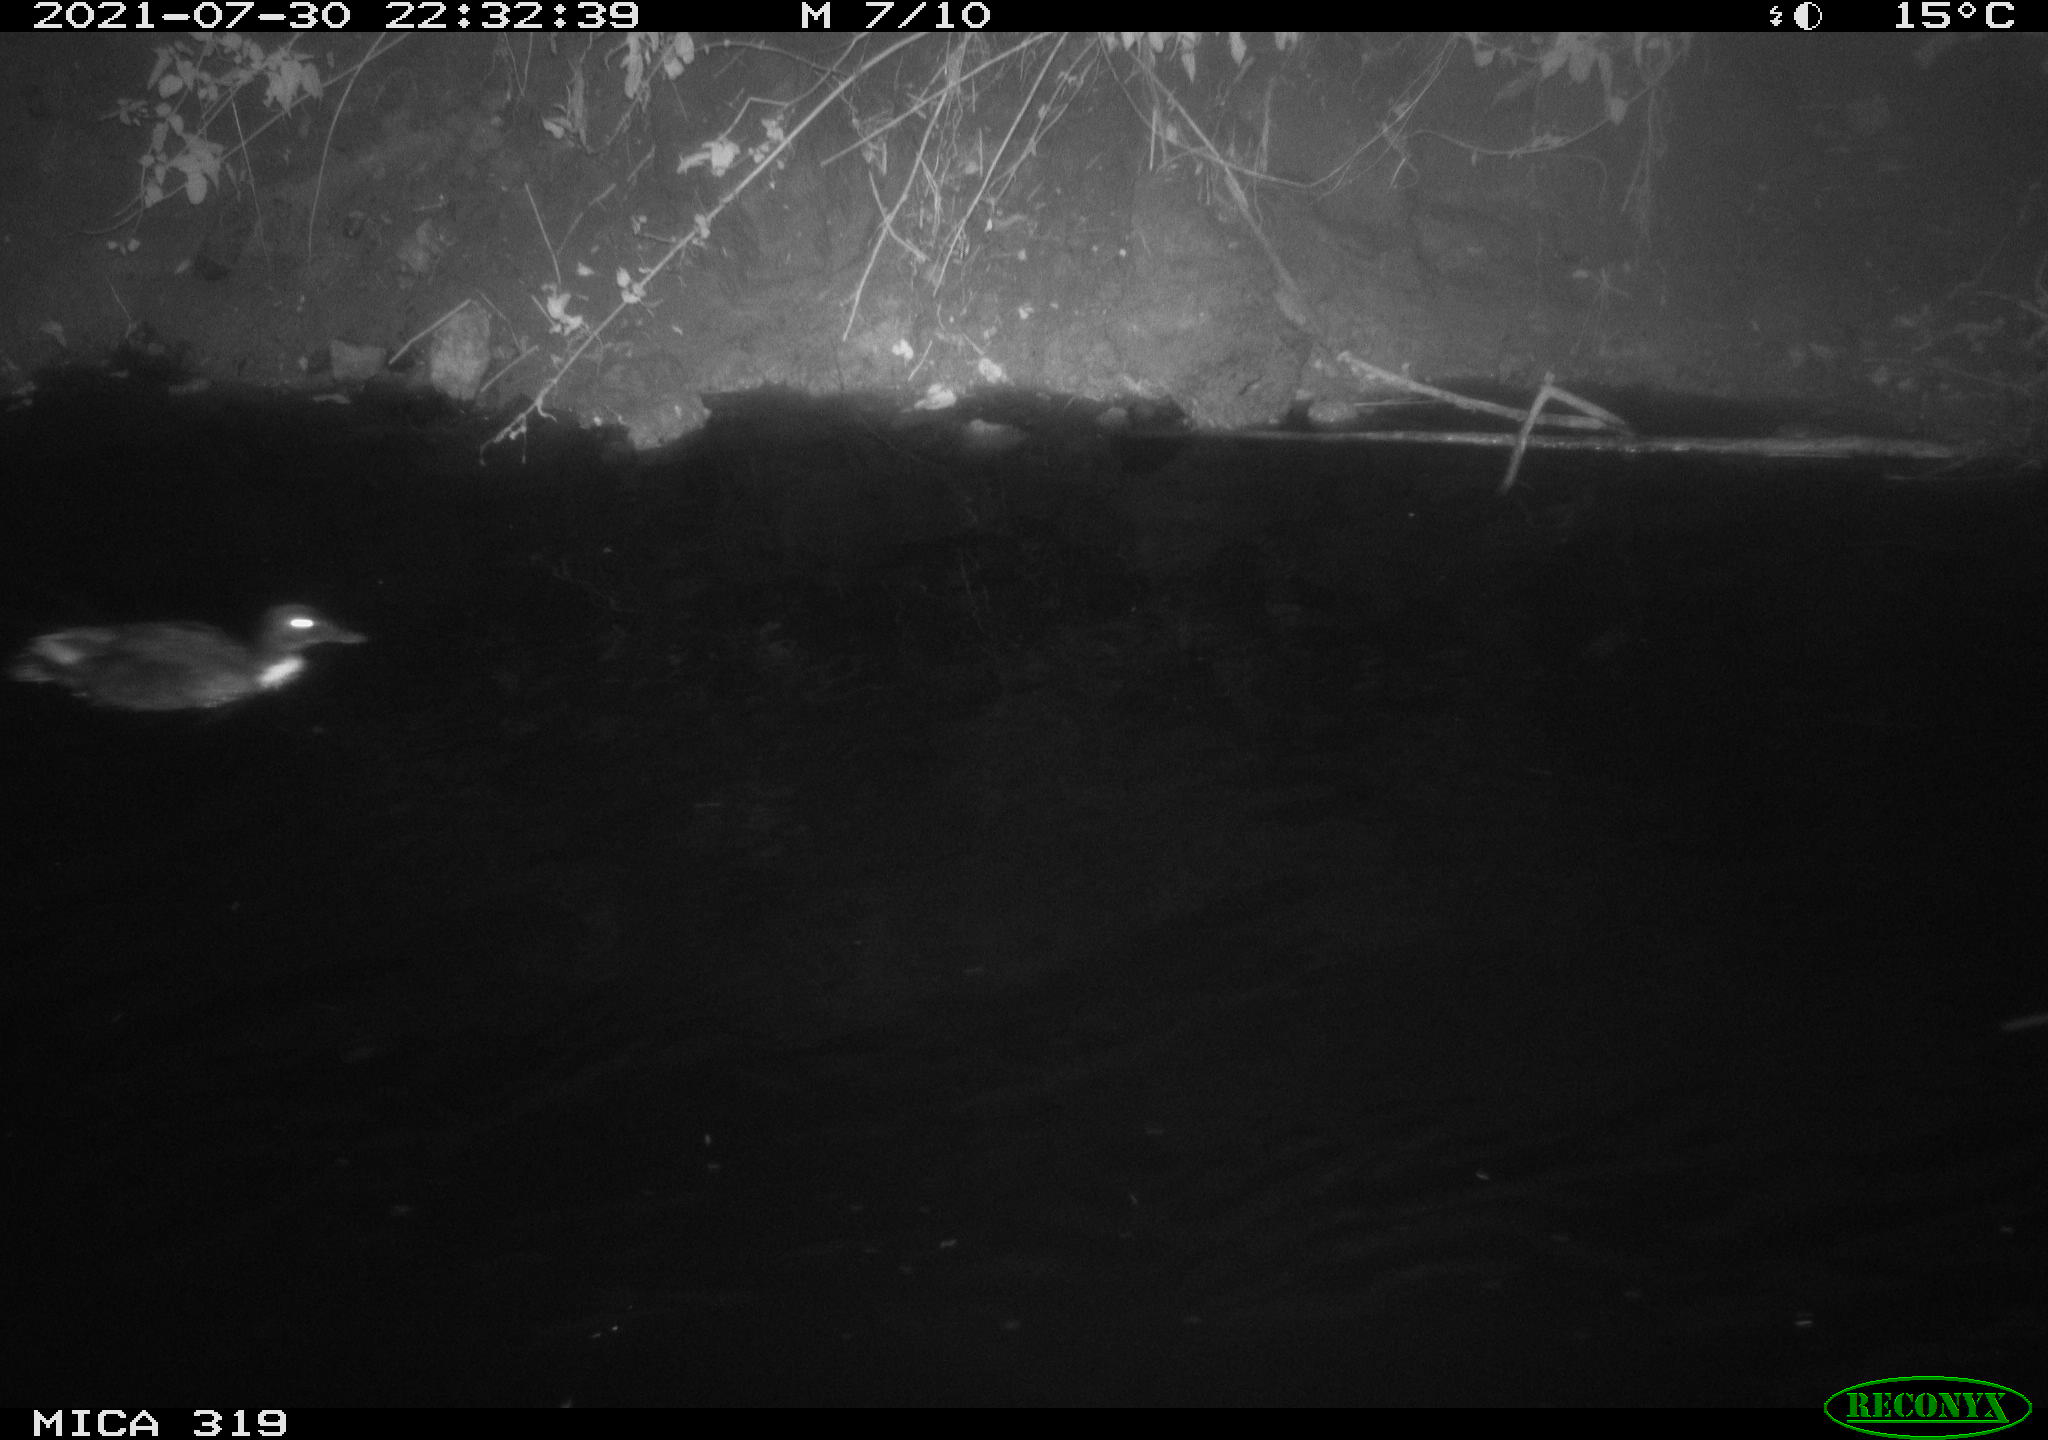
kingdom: Animalia
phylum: Chordata
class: Aves
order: Anseriformes
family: Anatidae
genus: Anas
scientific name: Anas platyrhynchos
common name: Mallard
